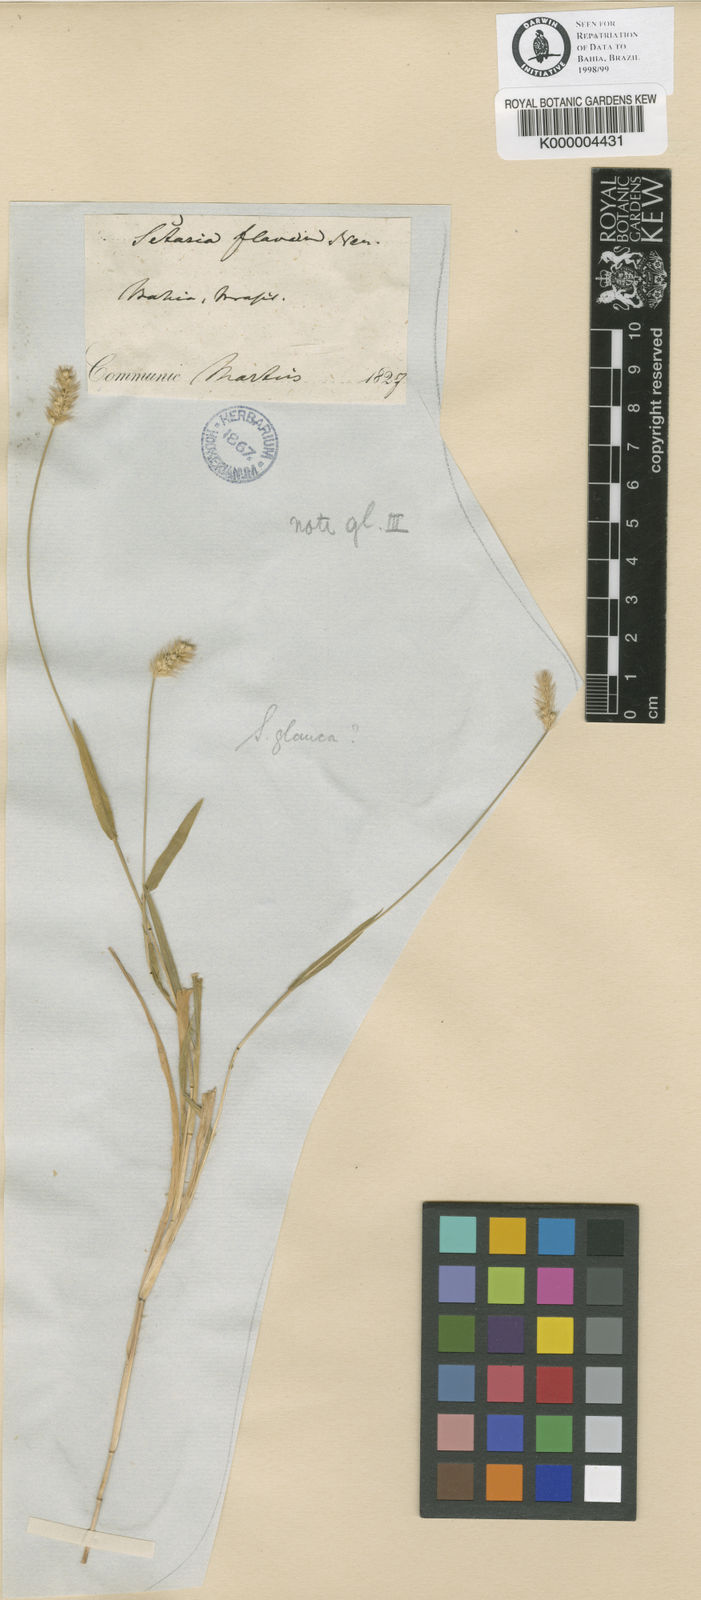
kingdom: Plantae
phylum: Tracheophyta
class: Liliopsida
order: Poales
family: Poaceae
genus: Setaria
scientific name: Setaria
